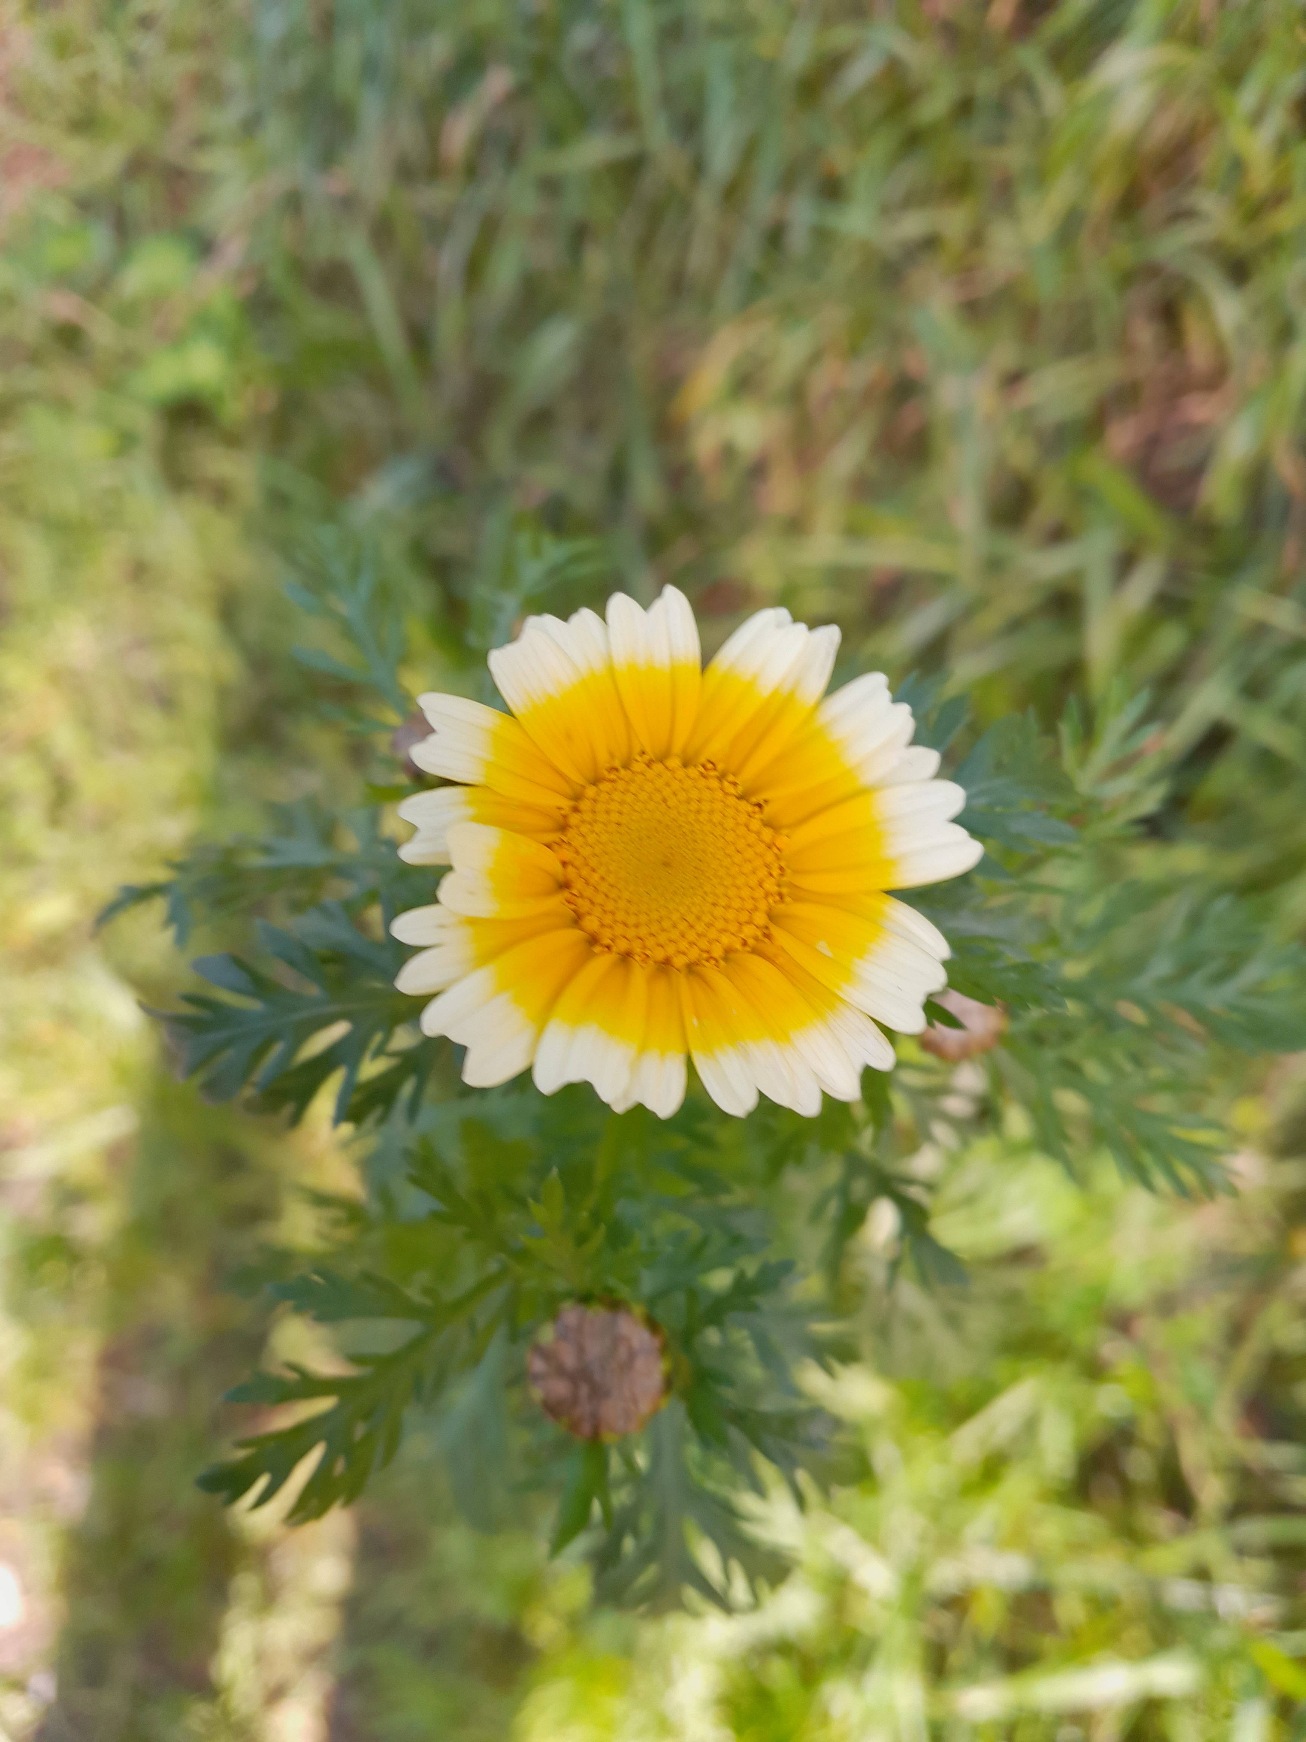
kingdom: Plantae
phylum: Tracheophyta
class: Magnoliopsida
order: Asterales
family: Asteraceae
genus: Glebionis
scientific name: Glebionis coronaria
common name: Kron-okseøje
